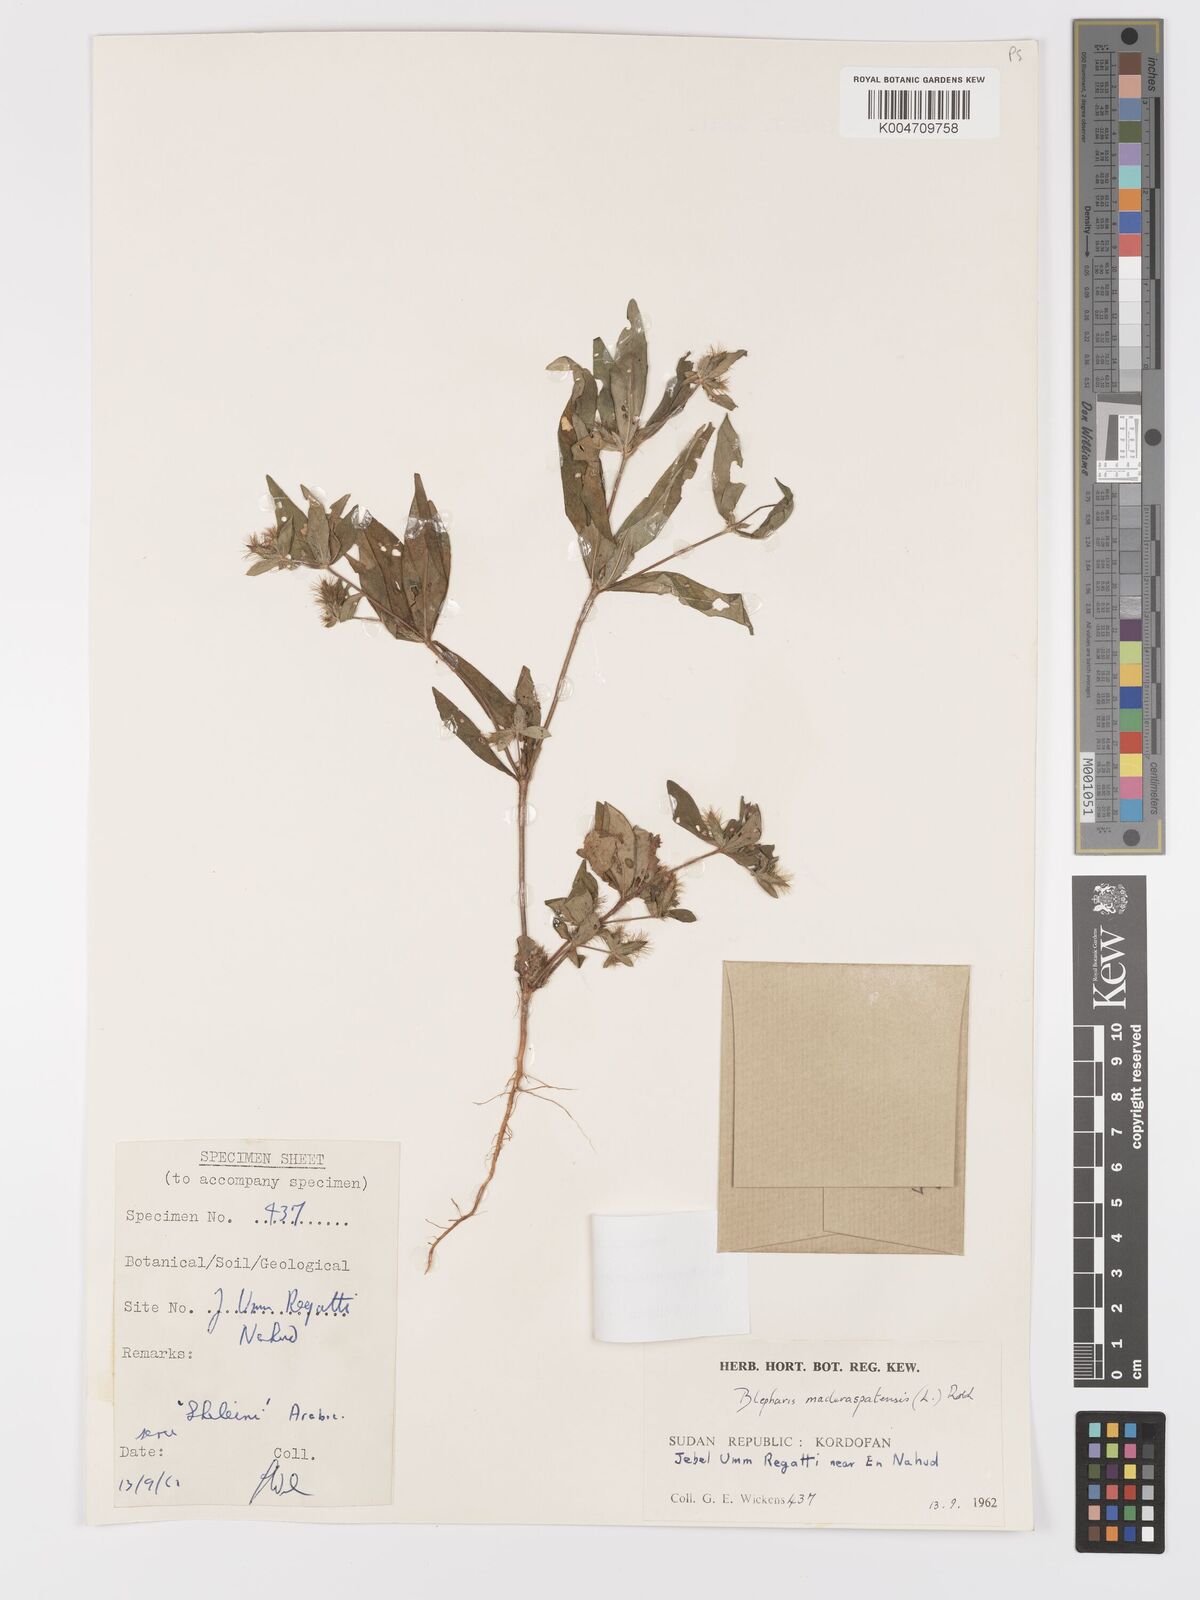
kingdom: Plantae
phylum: Tracheophyta
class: Magnoliopsida
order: Lamiales
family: Acanthaceae
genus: Blepharis
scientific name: Blepharis maderaspatensis
